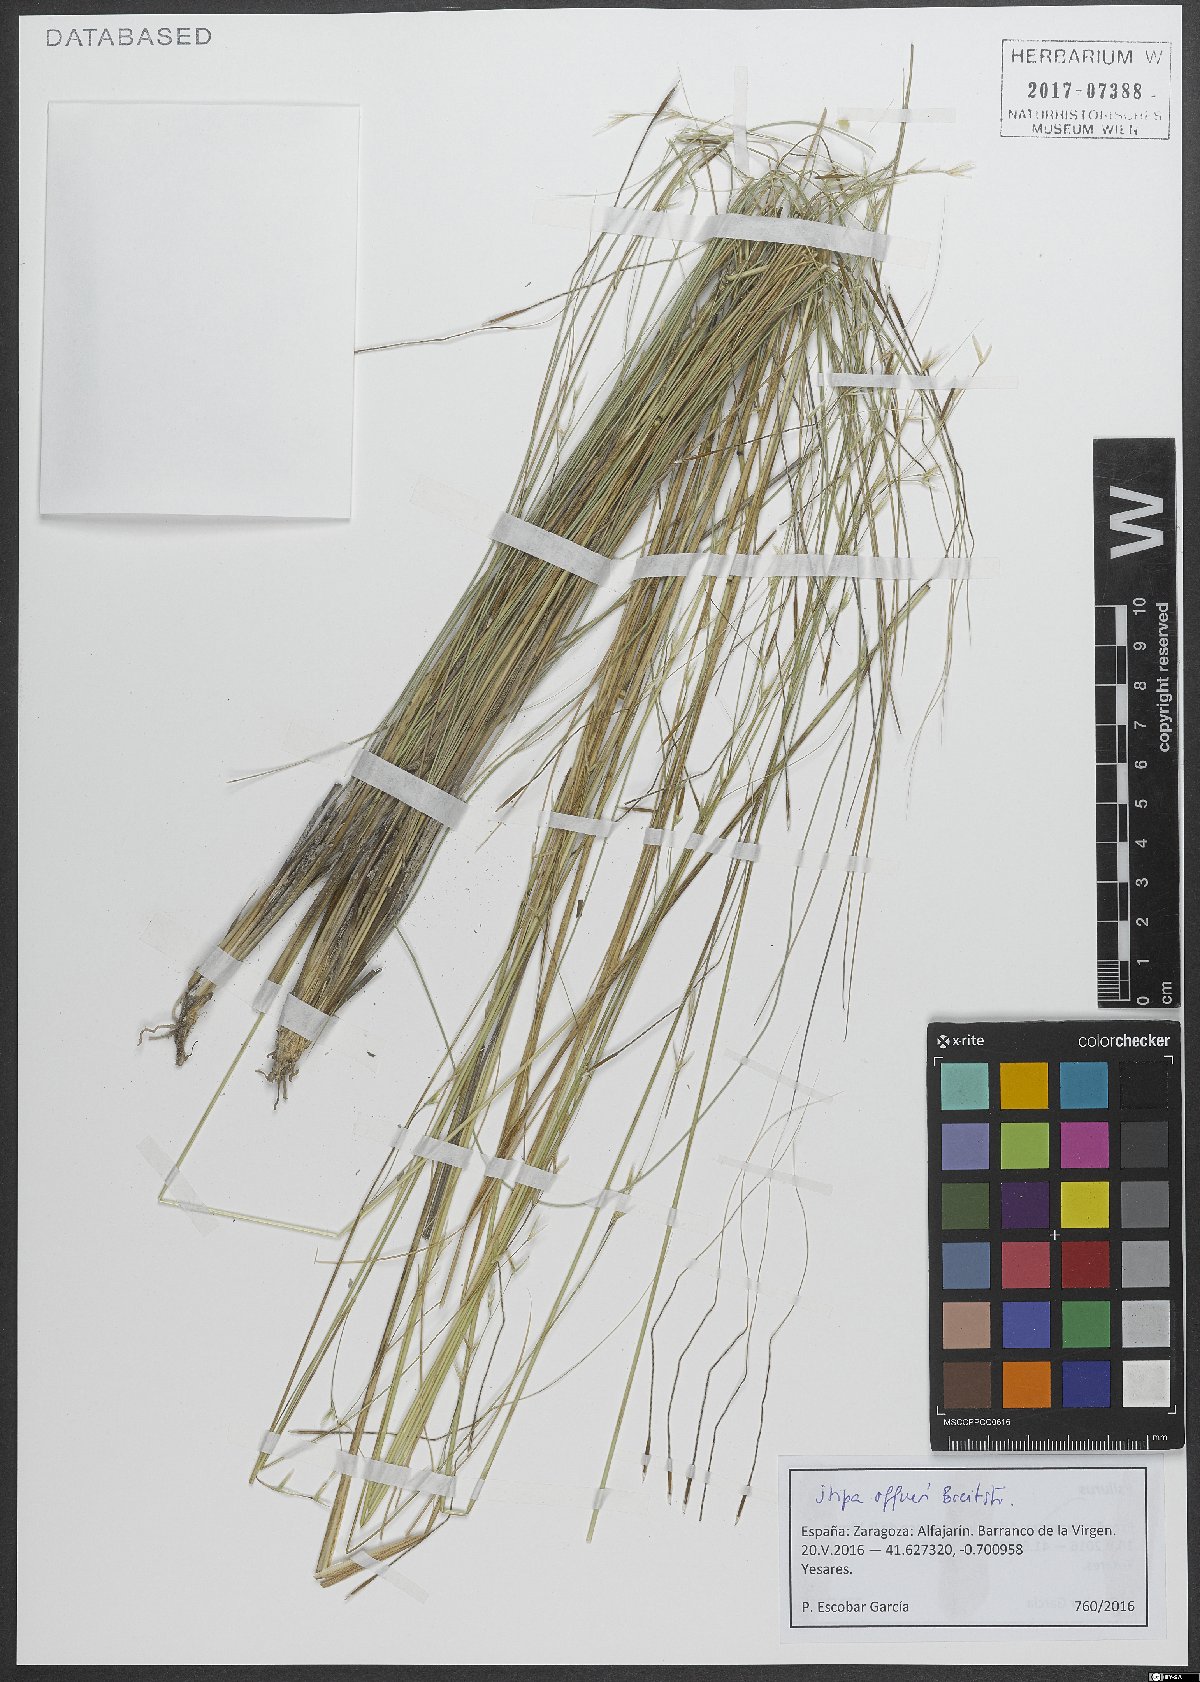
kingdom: Plantae
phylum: Tracheophyta
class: Liliopsida
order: Poales
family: Poaceae
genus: Stipa
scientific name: Stipa offneri
